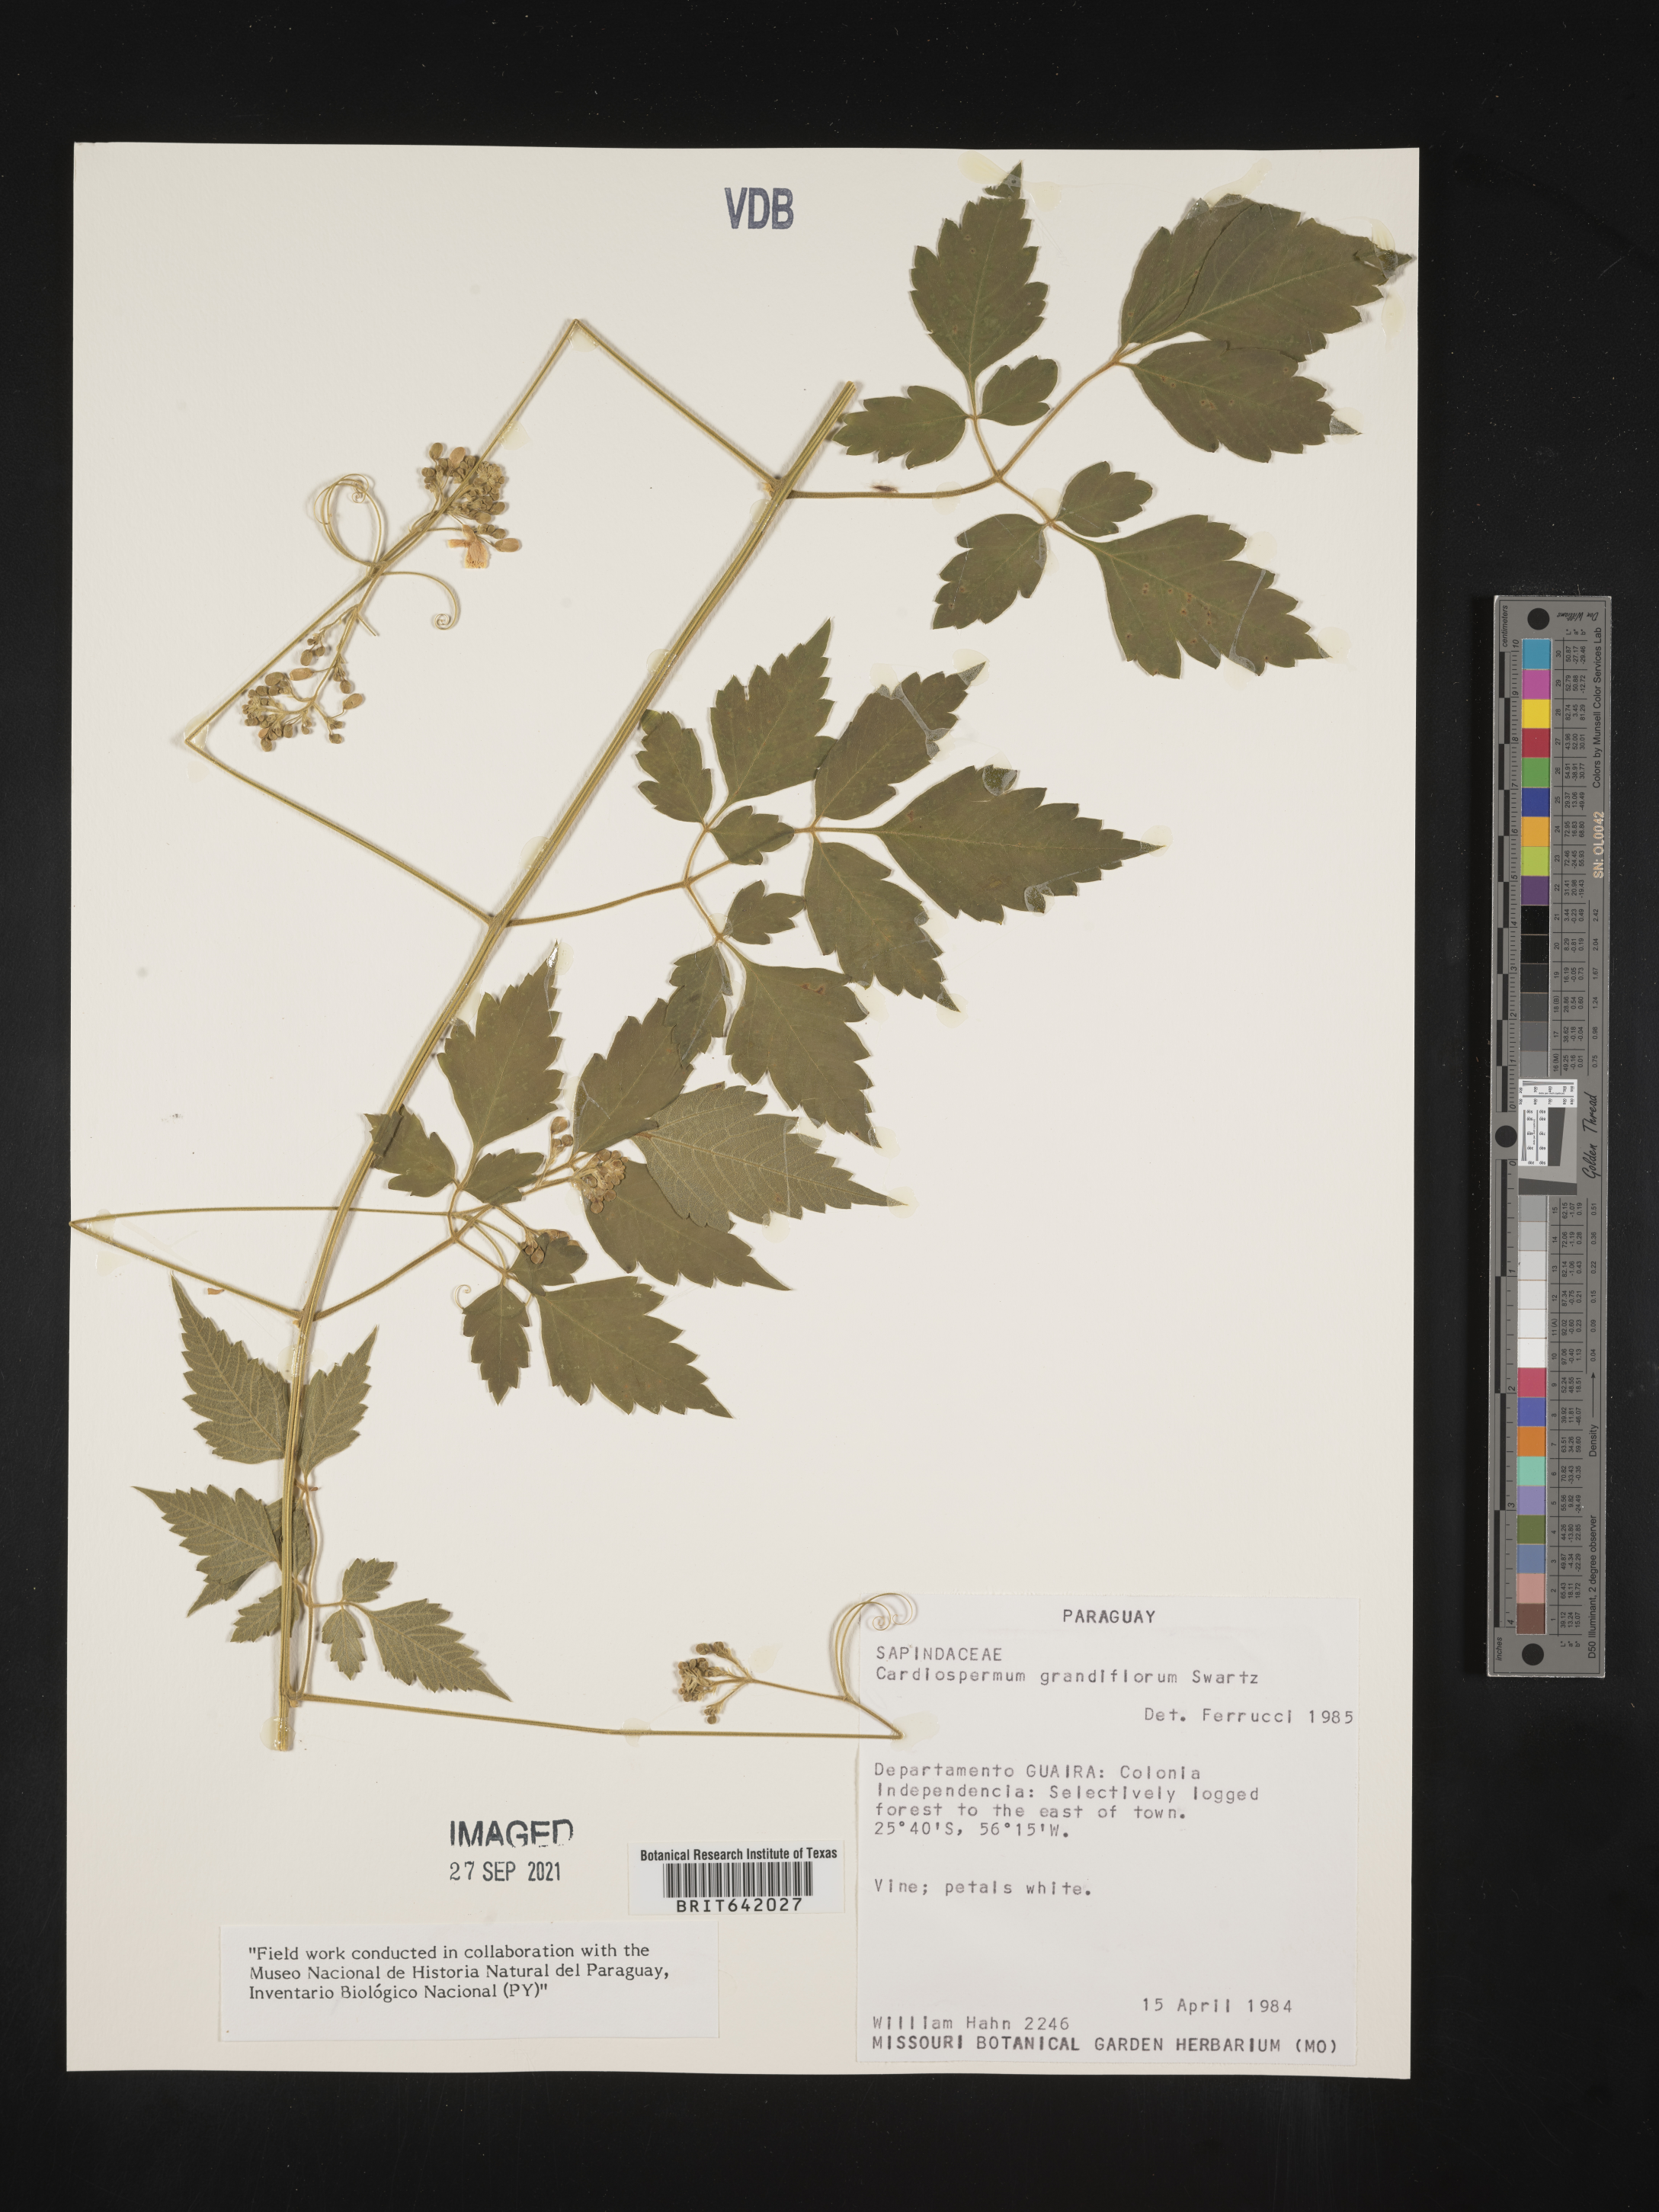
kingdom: Plantae
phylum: Tracheophyta
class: Magnoliopsida
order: Sapindales
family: Sapindaceae
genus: Cardiospermum
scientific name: Cardiospermum
